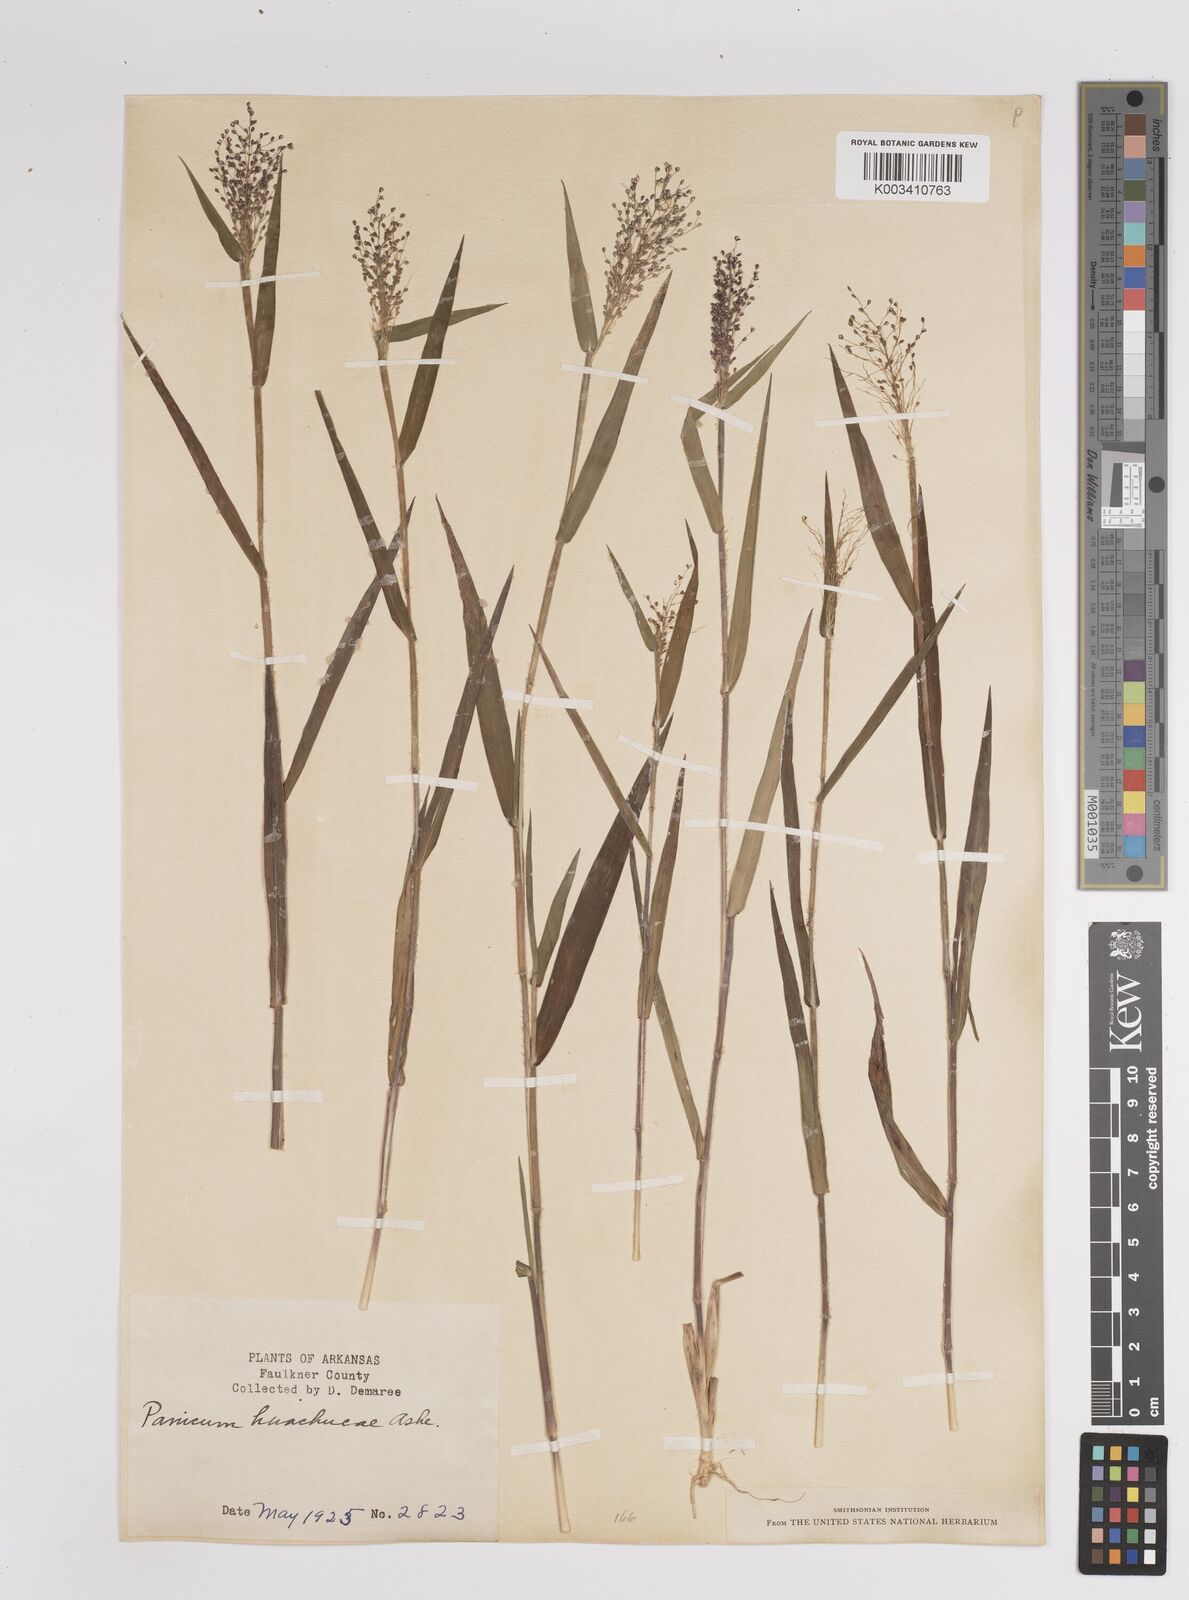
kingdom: Plantae
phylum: Tracheophyta
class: Liliopsida
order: Poales
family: Poaceae
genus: Dichanthelium
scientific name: Dichanthelium acuminatum
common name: Hairy panic grass
